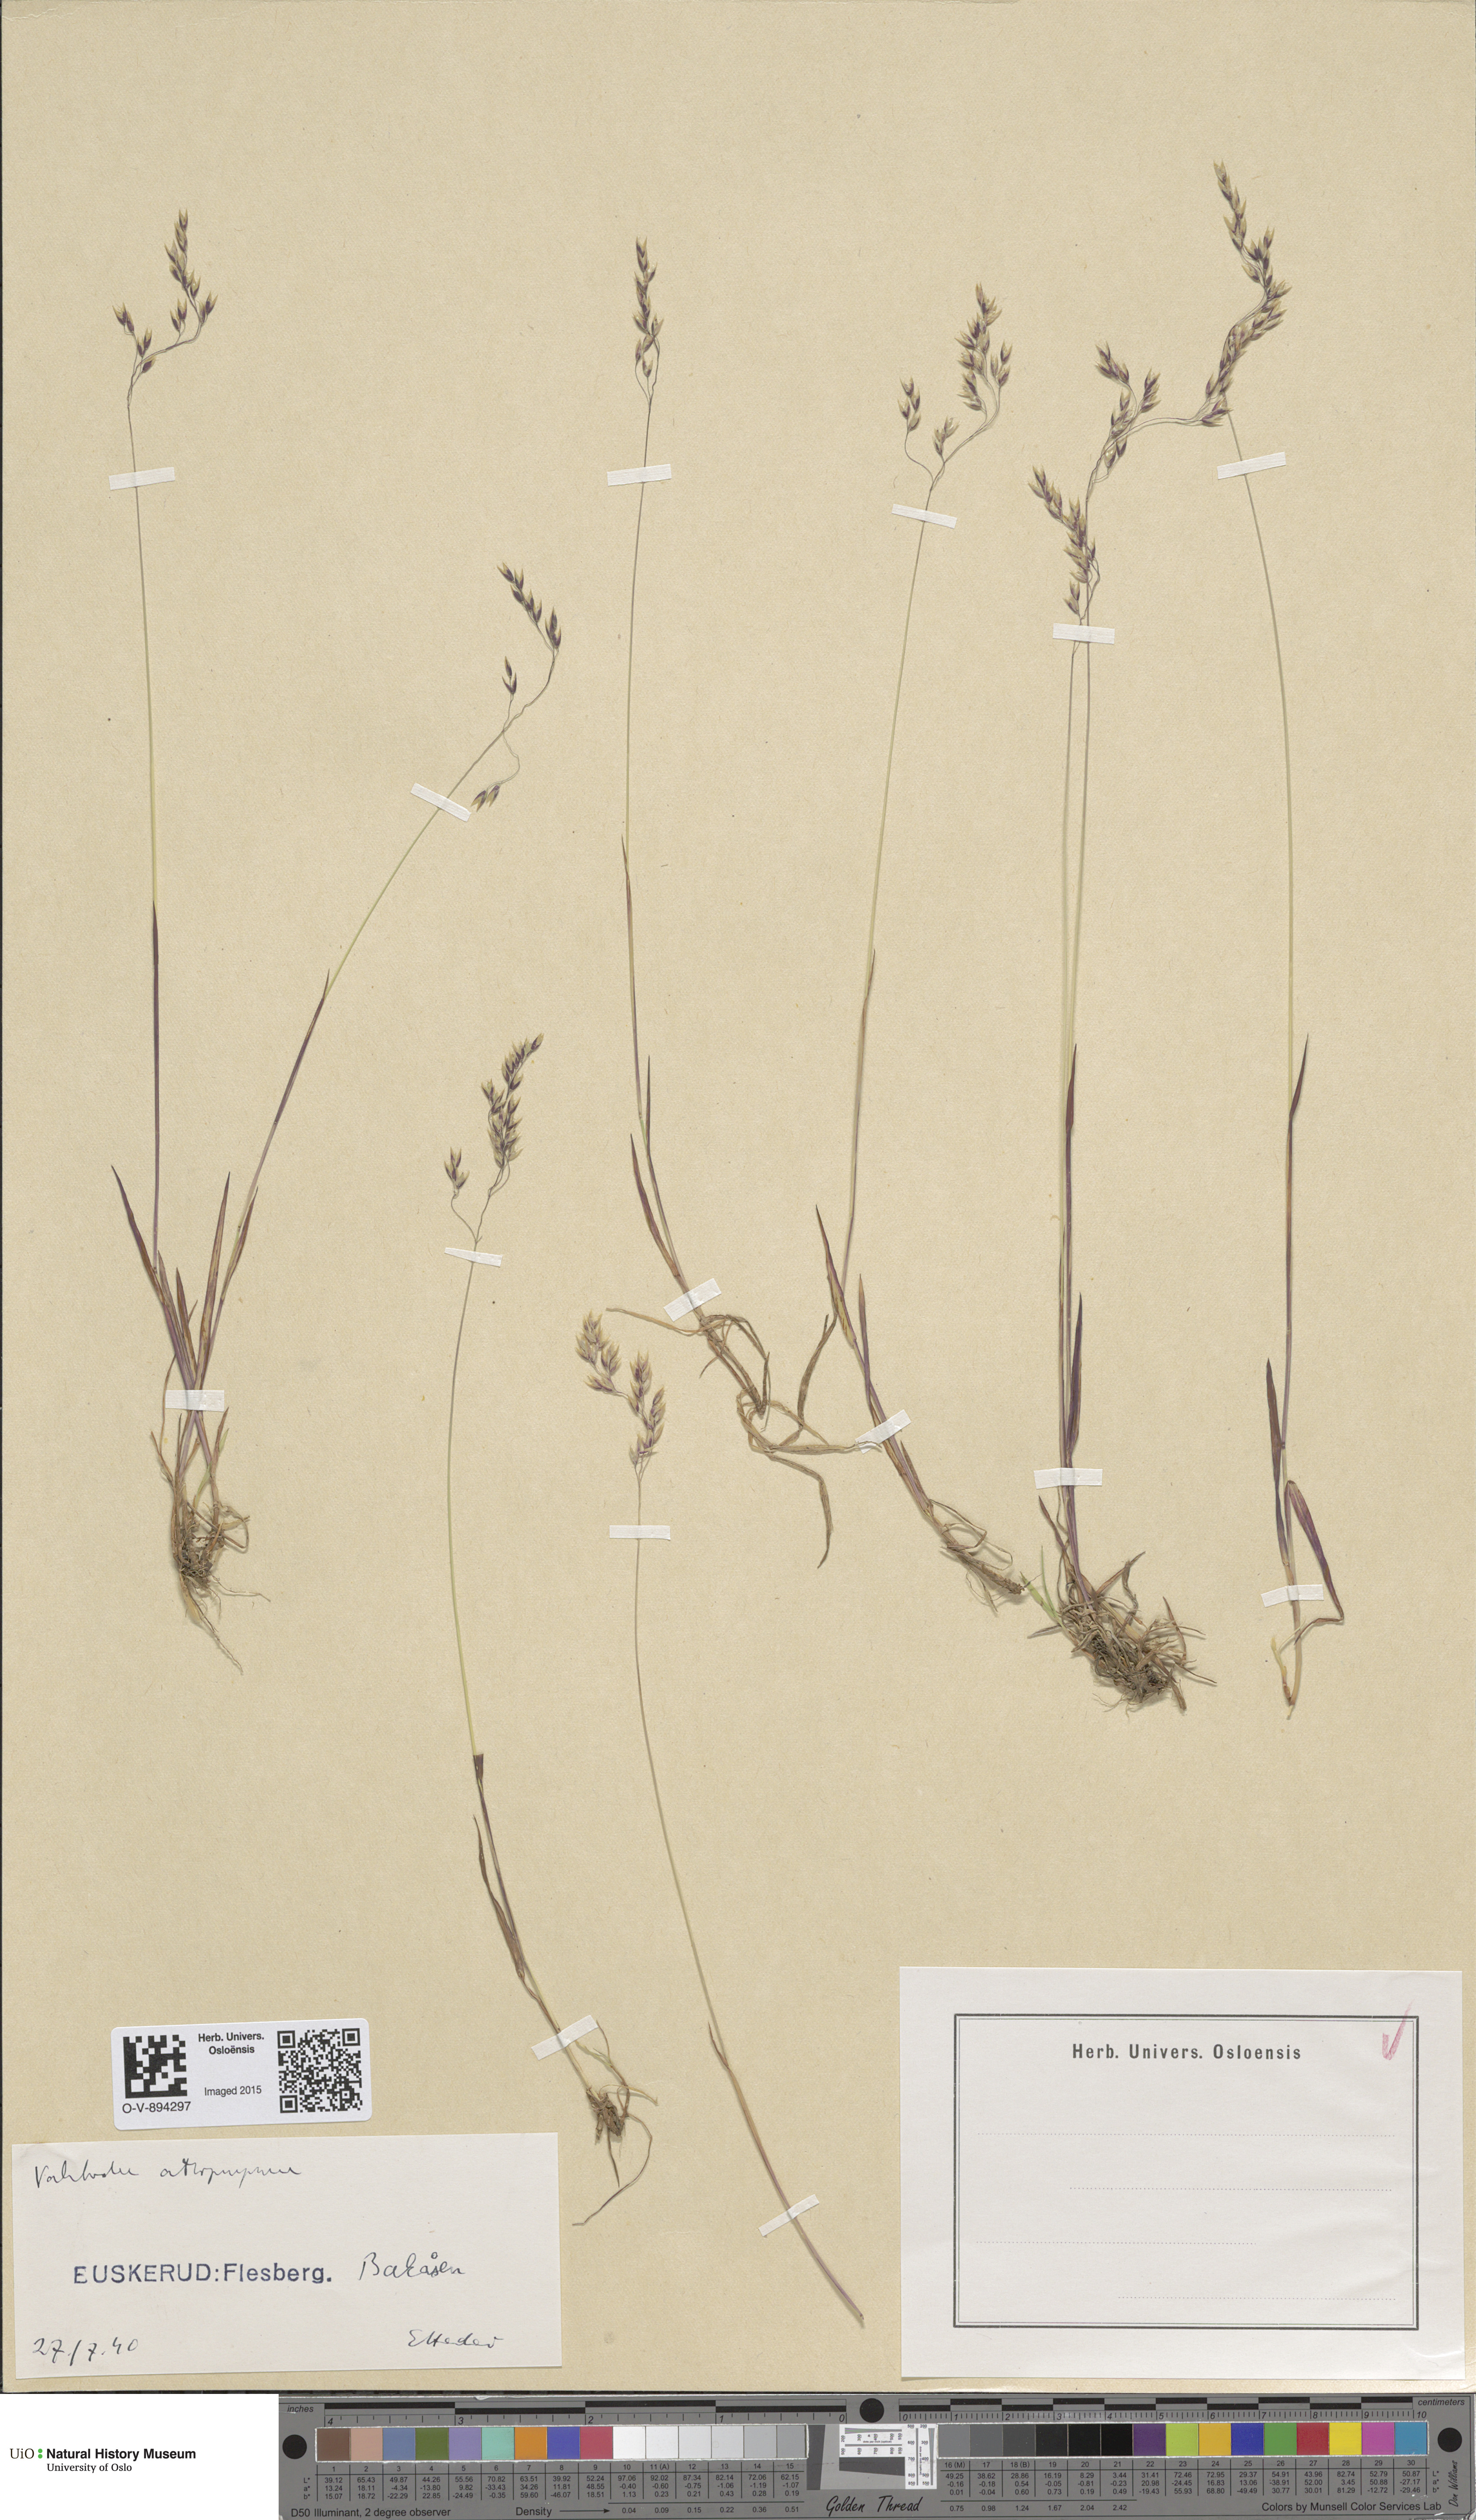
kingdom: Plantae
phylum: Tracheophyta
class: Liliopsida
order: Poales
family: Poaceae
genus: Vahlodea
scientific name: Vahlodea atropurpurea
